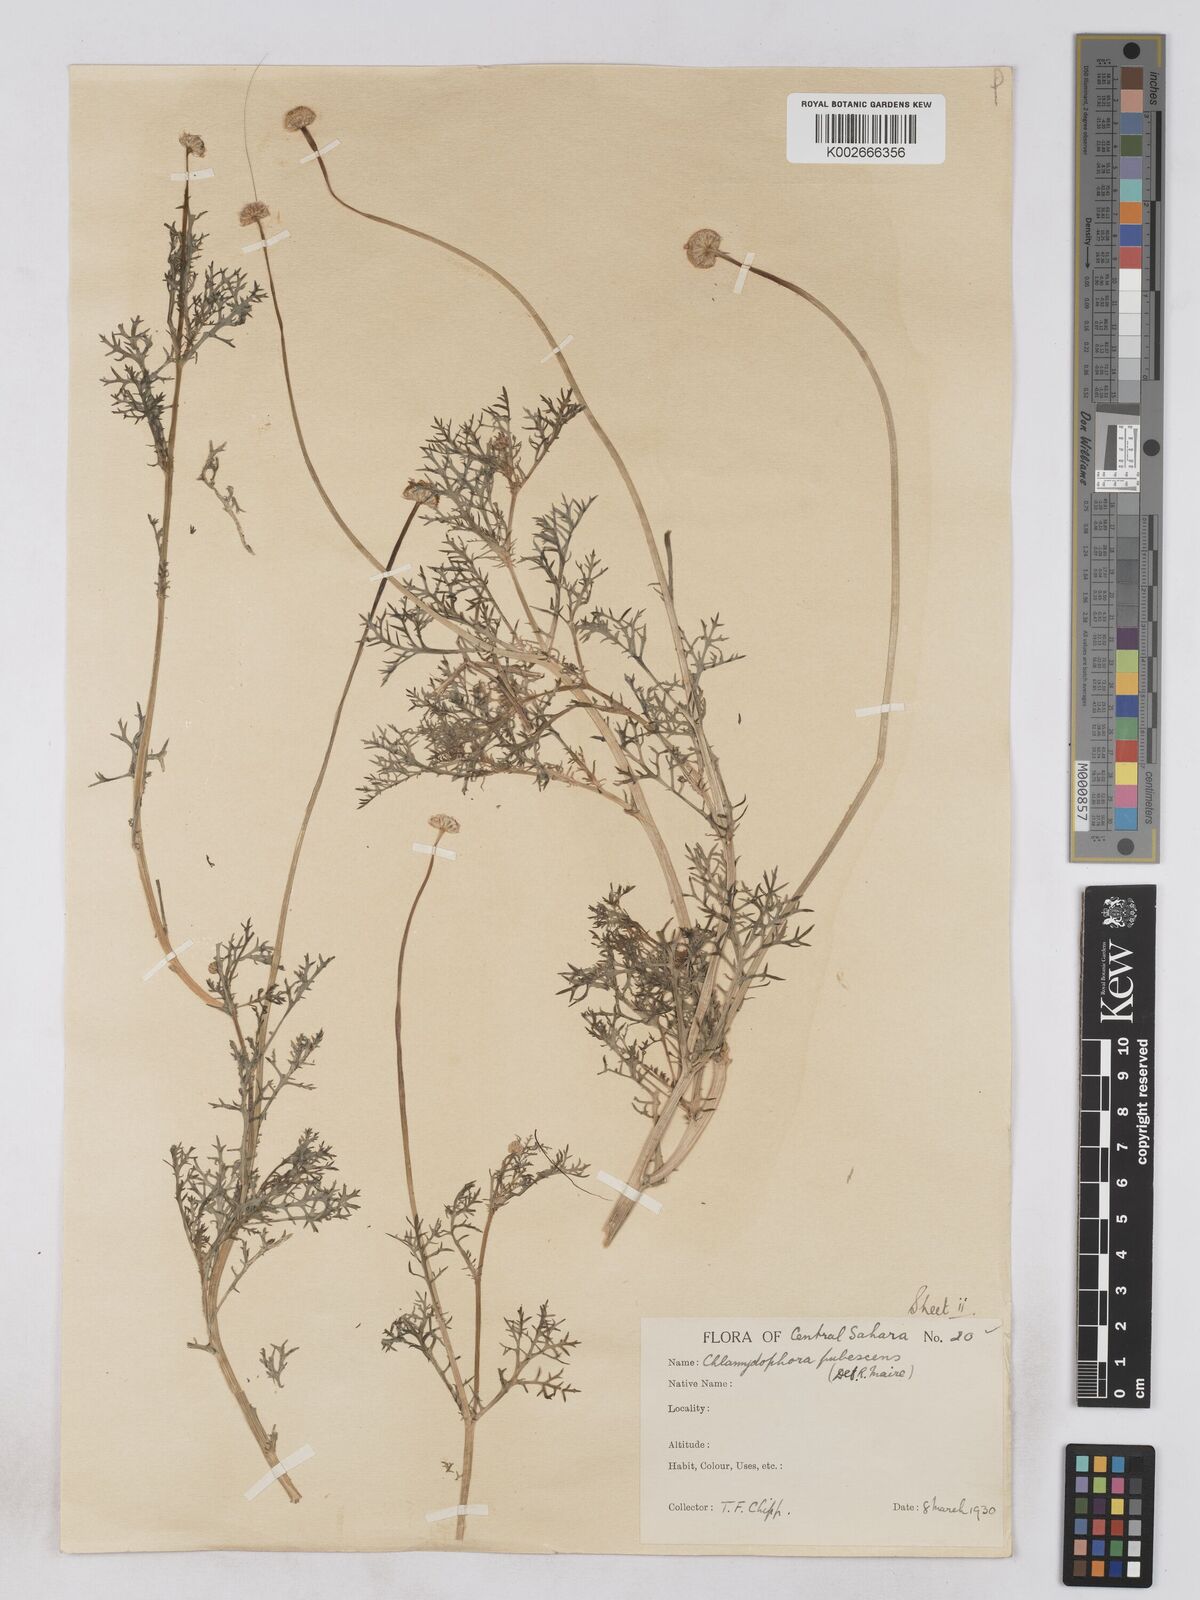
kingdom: Plantae
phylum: Tracheophyta
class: Magnoliopsida
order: Asterales
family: Asteraceae
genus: Otoglyphis
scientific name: Otoglyphis pubescens
